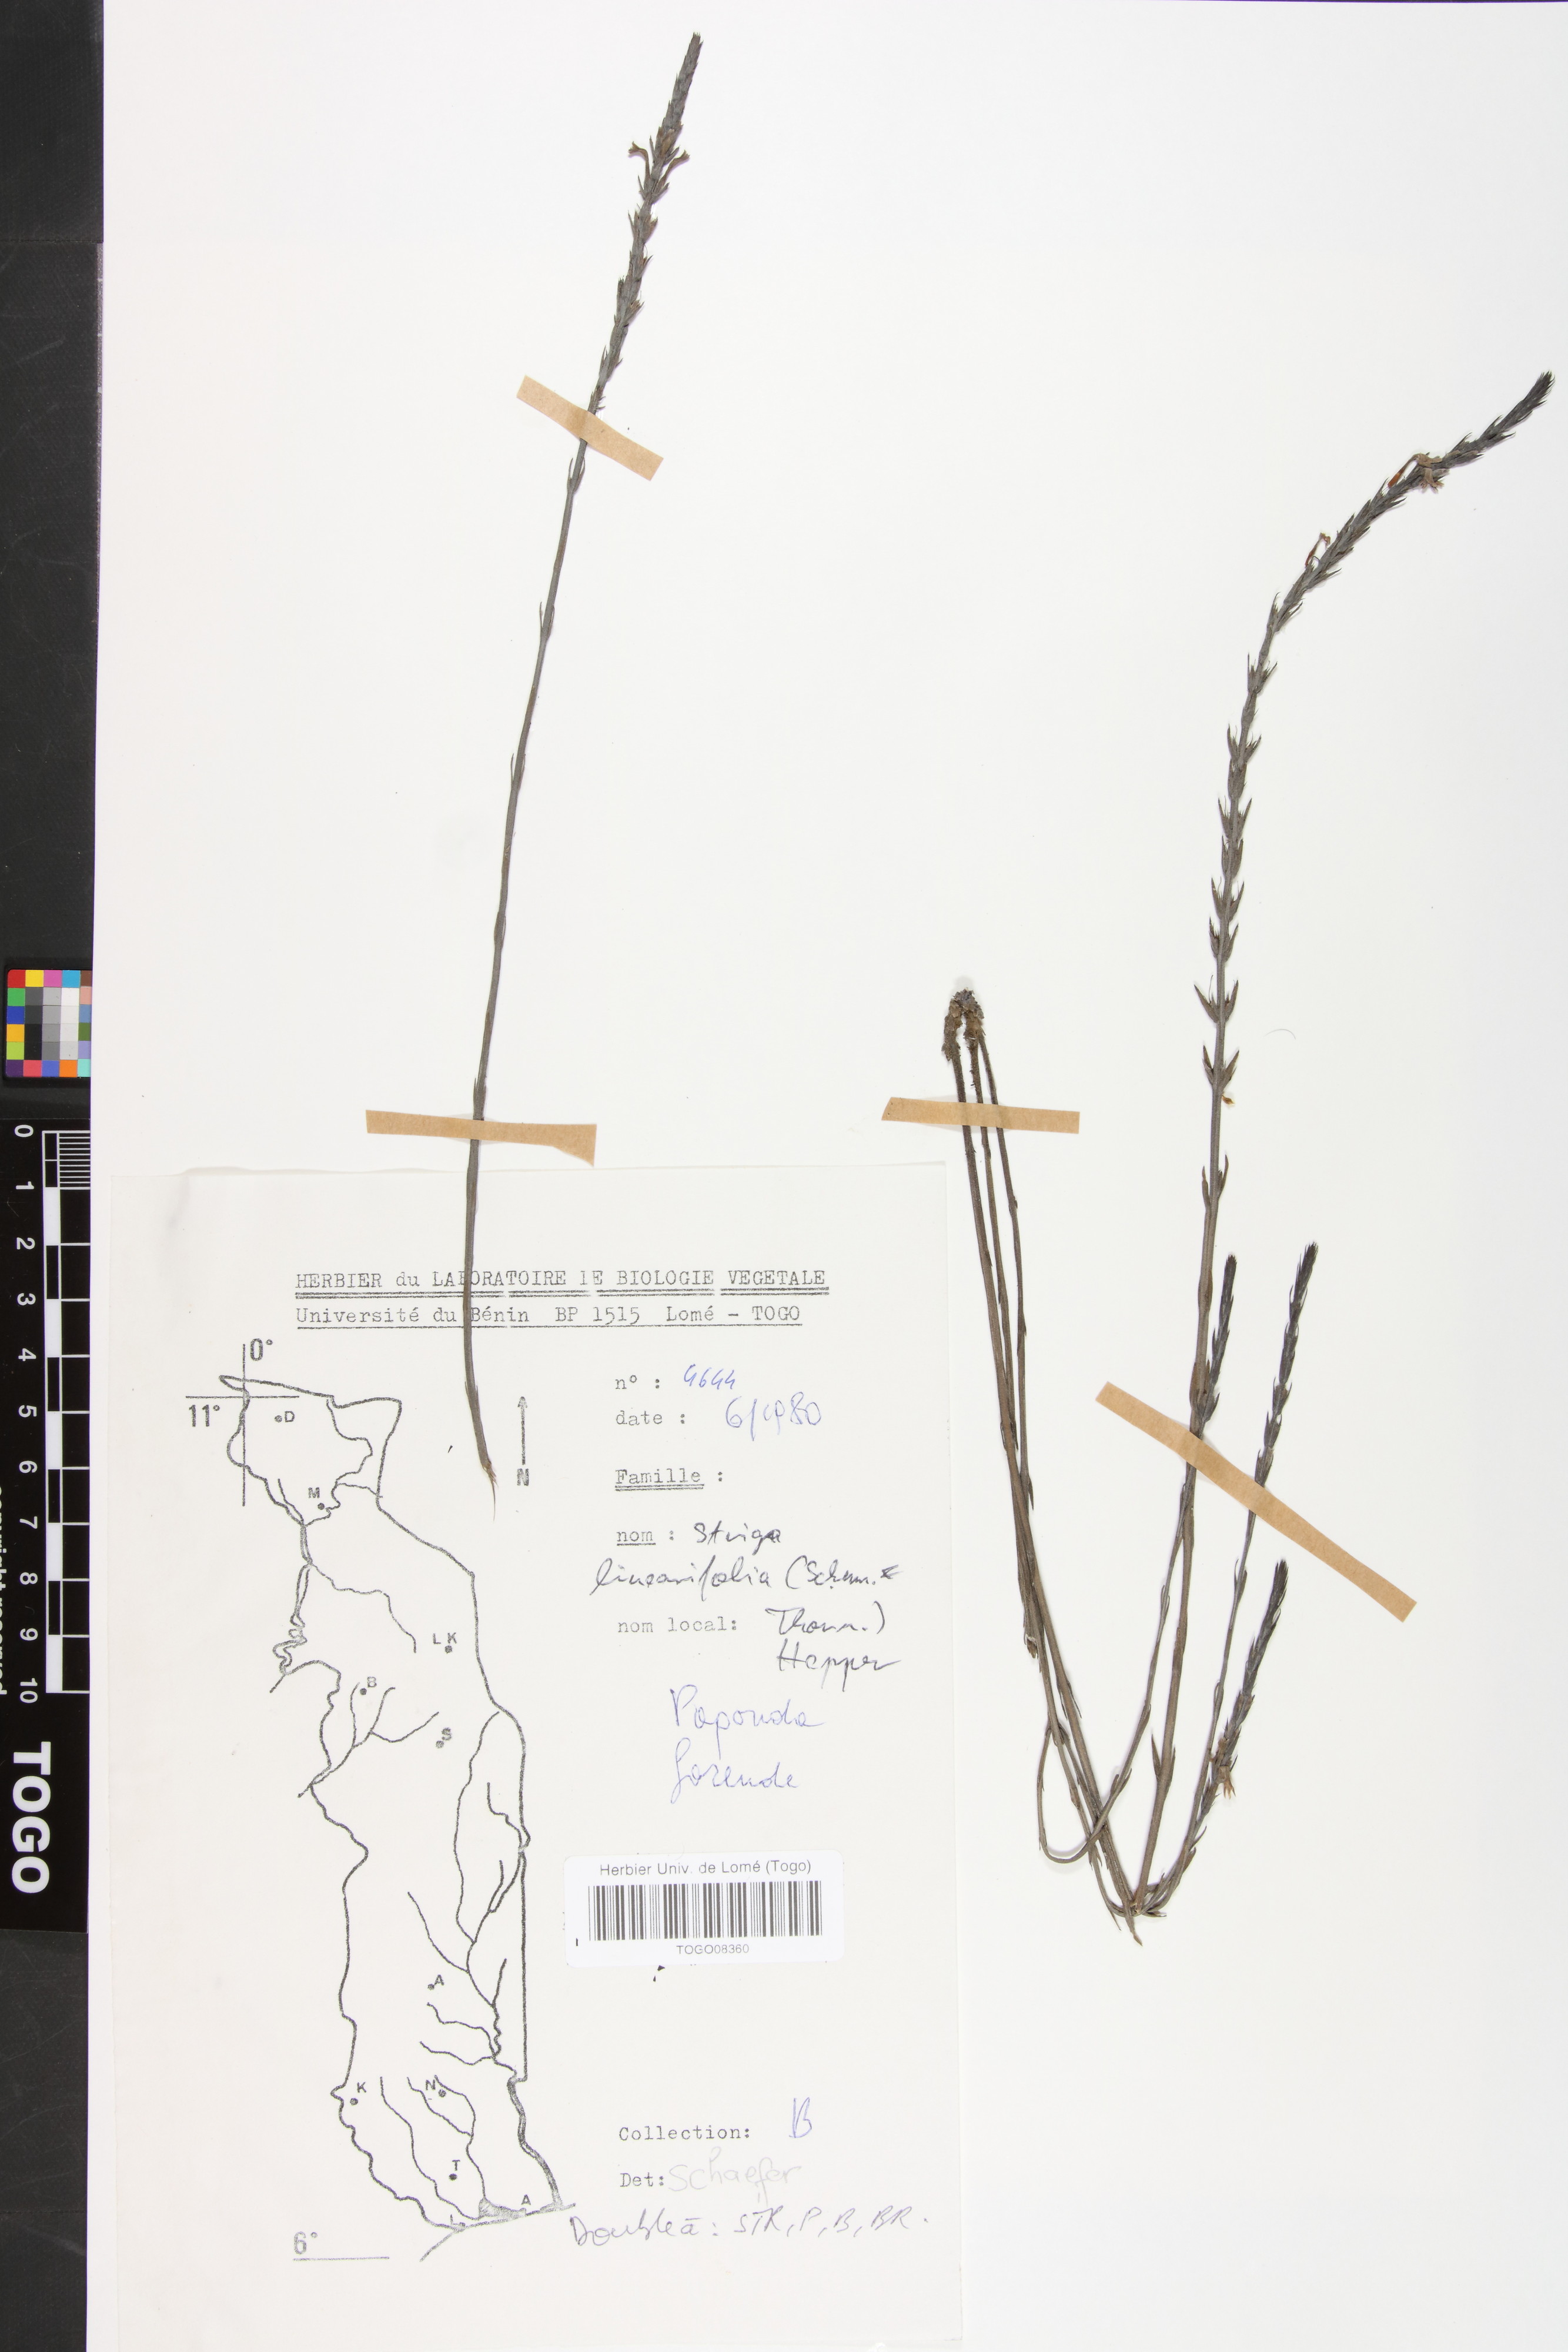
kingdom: Plantae
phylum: Tracheophyta
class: Magnoliopsida
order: Lamiales
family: Orobanchaceae
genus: Striga
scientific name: Striga linearifolia
